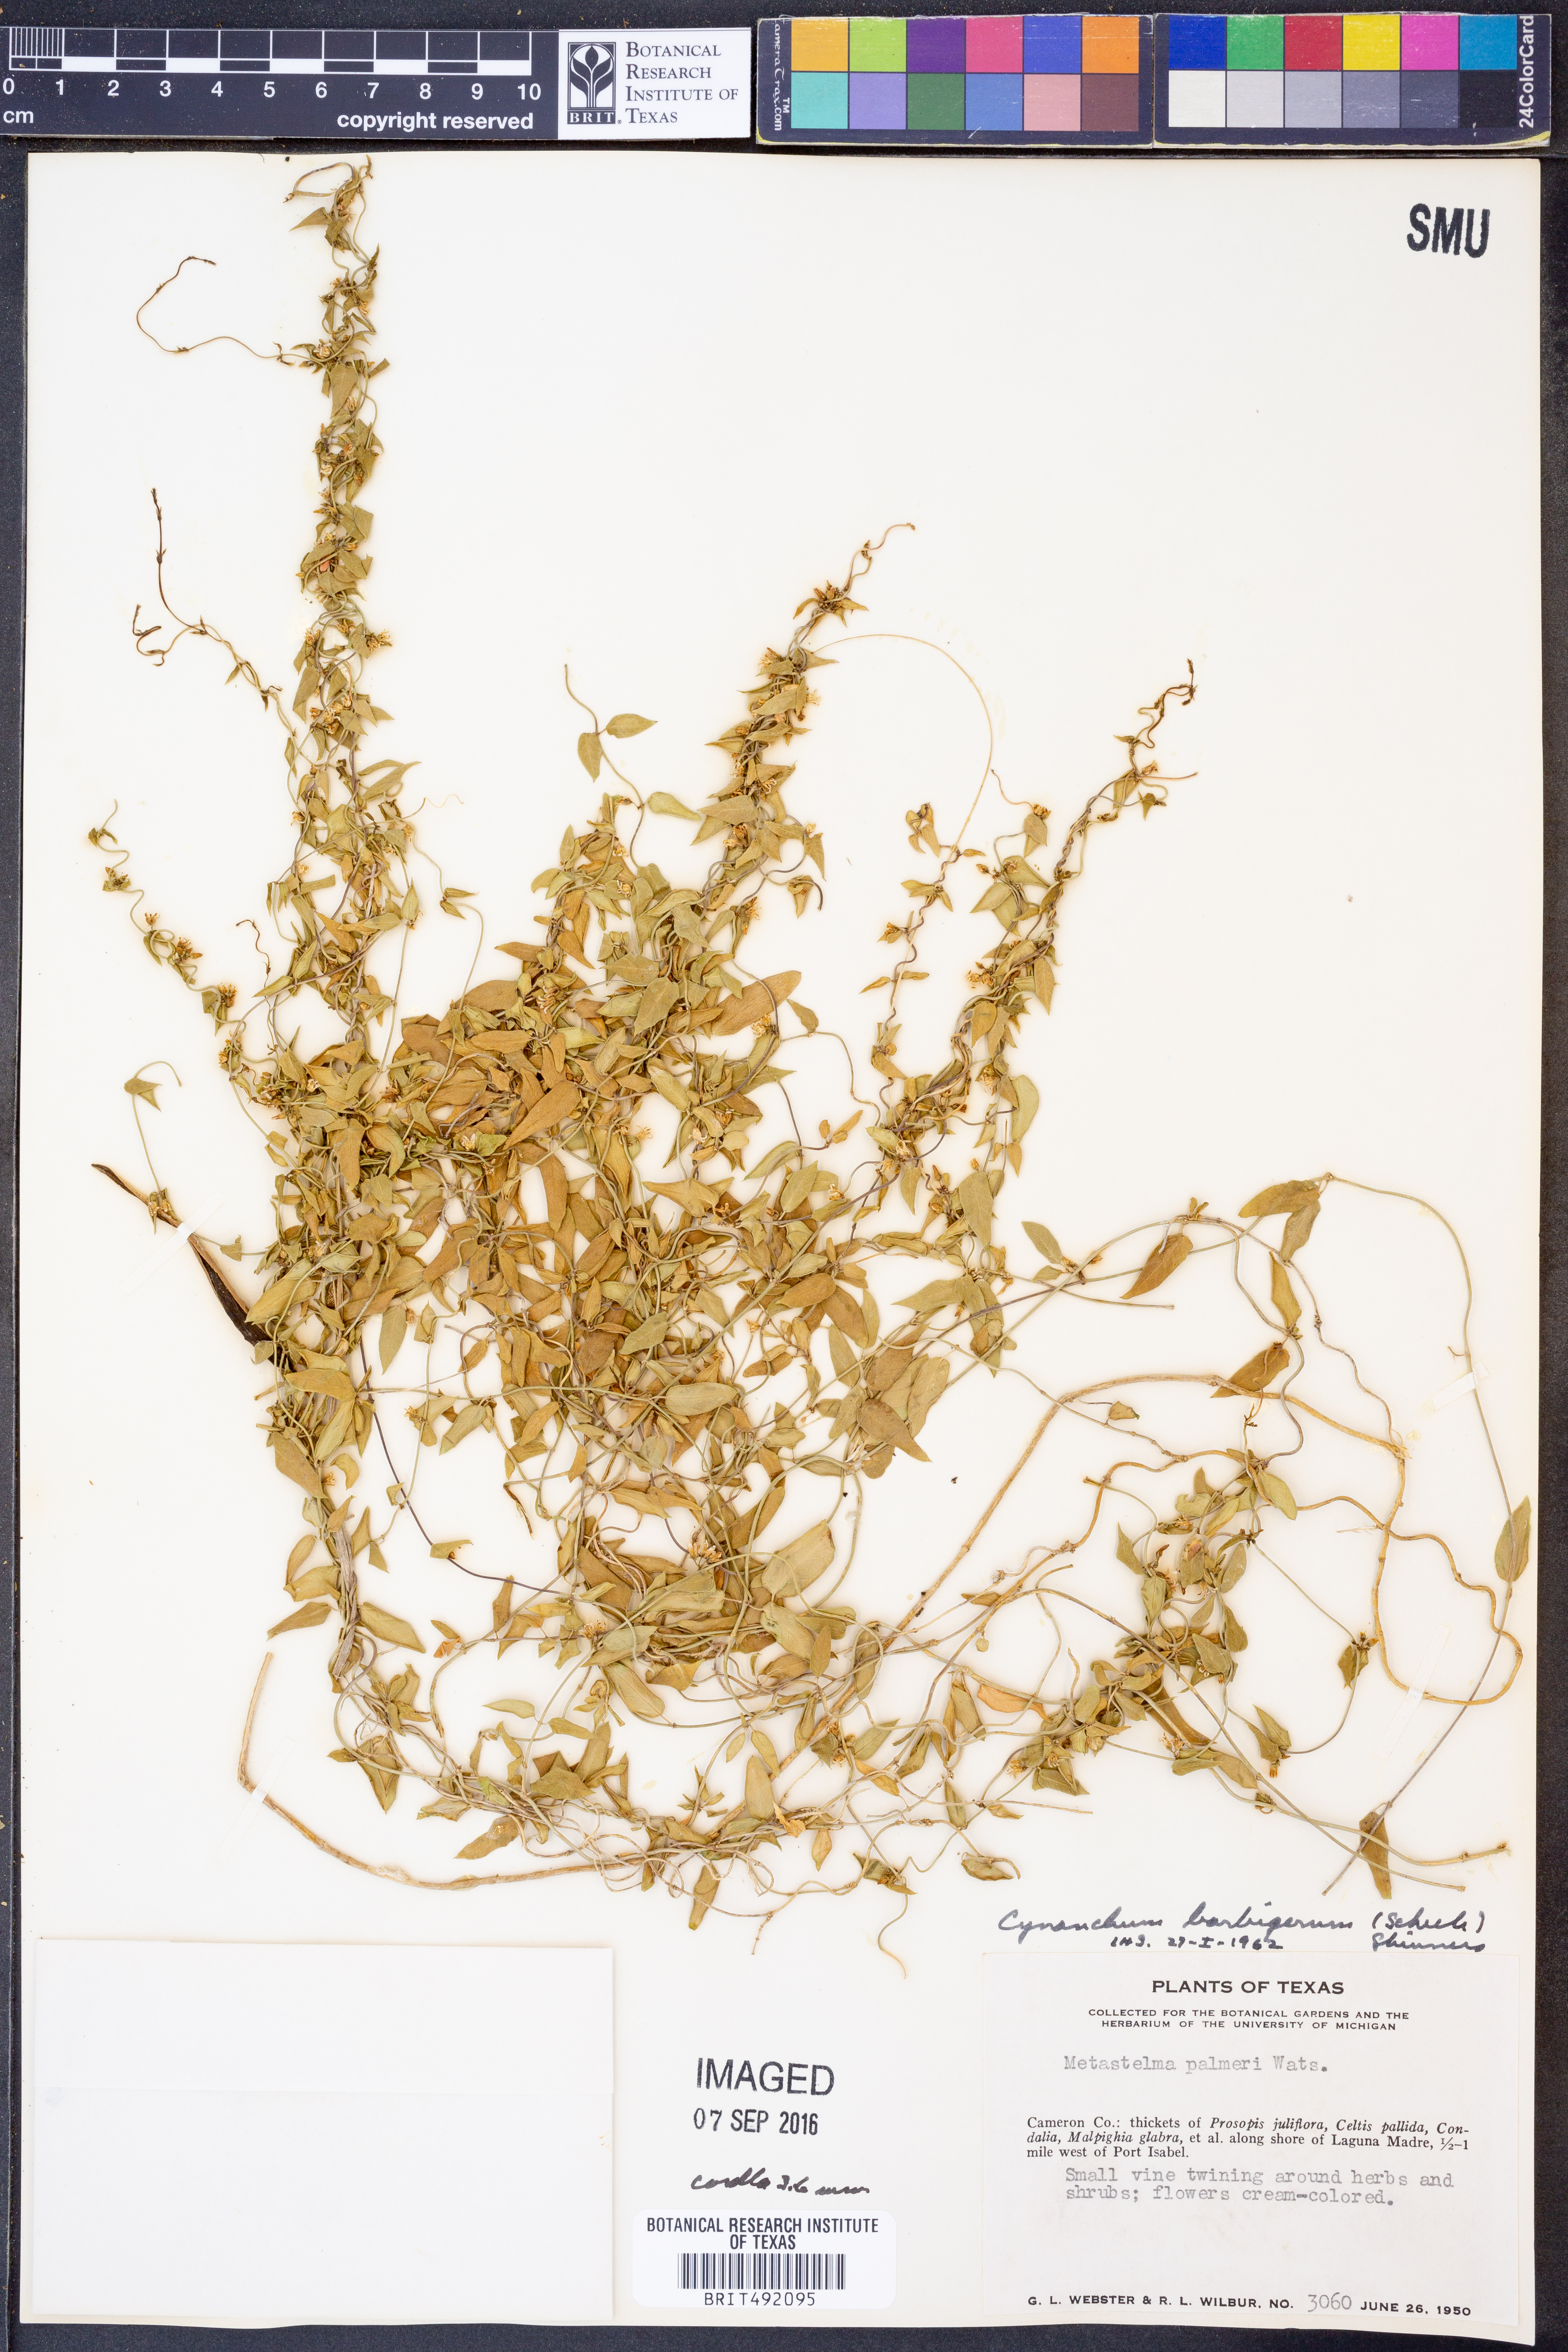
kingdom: Plantae
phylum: Tracheophyta
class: Magnoliopsida
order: Gentianales
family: Apocynaceae
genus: Metastelma
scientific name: Metastelma barbigerum
